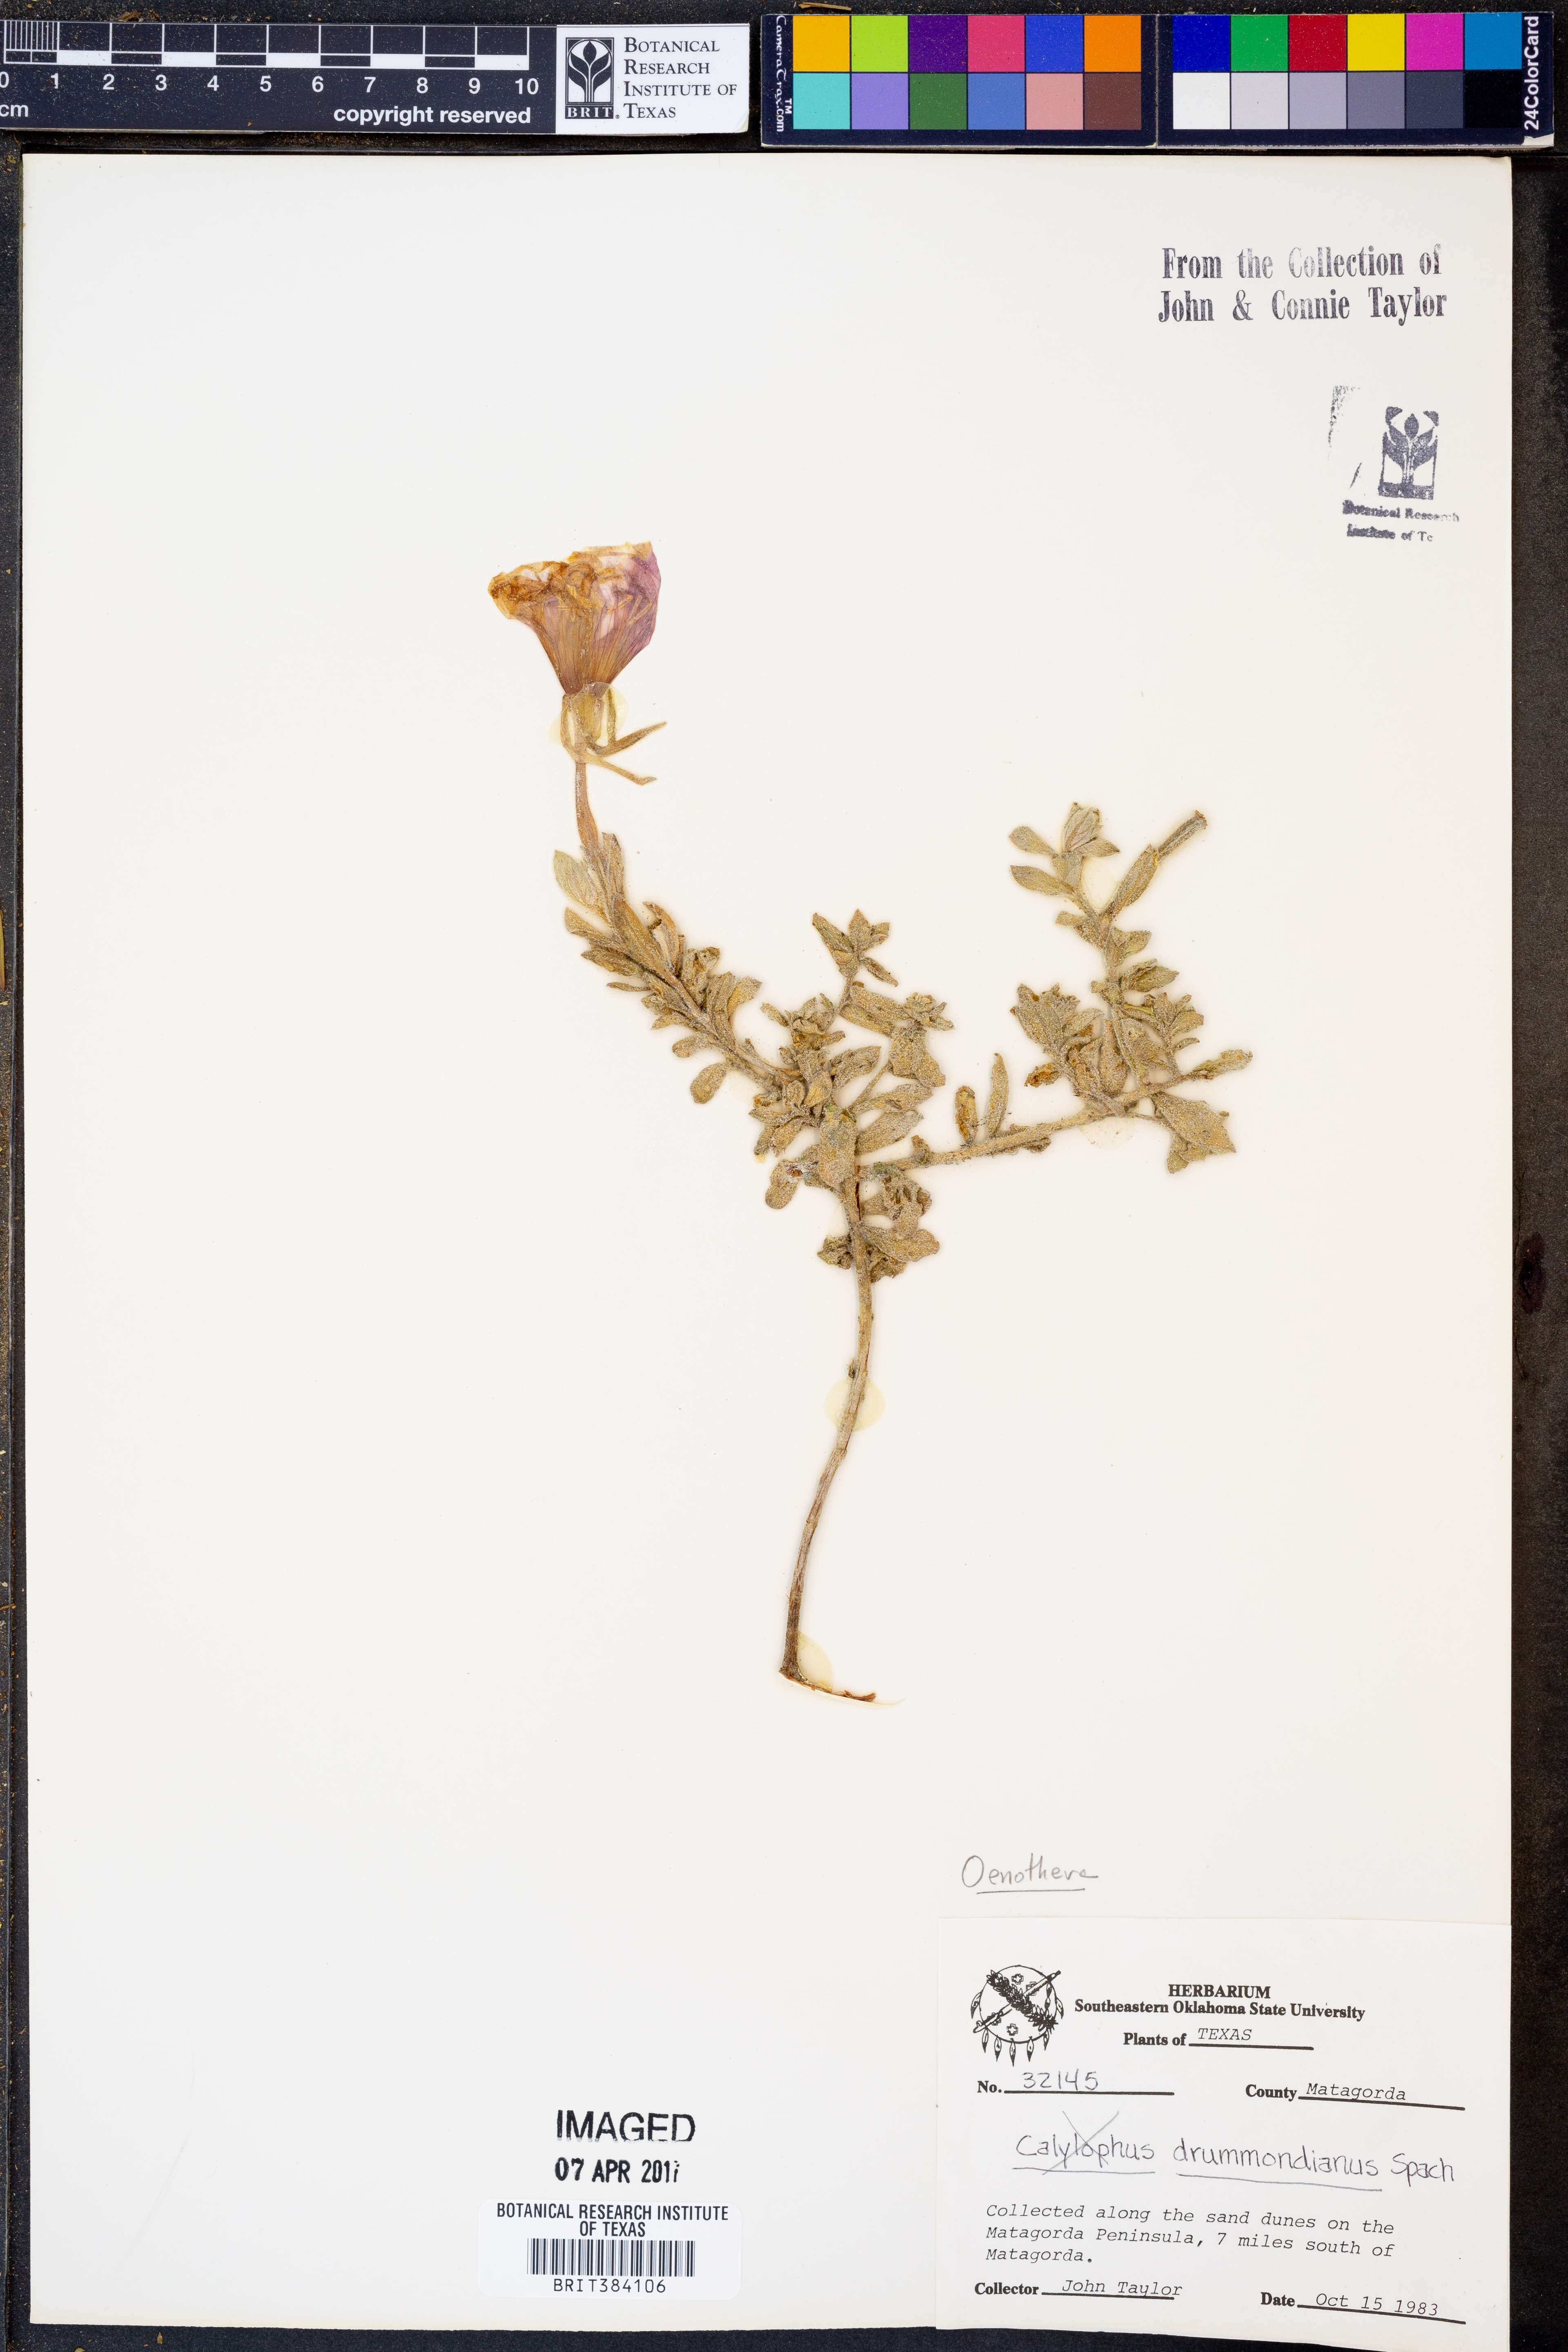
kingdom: Plantae
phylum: Tracheophyta
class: Magnoliopsida
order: Myrtales
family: Onagraceae
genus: Oenothera
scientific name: Oenothera drummondii
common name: Beach evening-primrose
